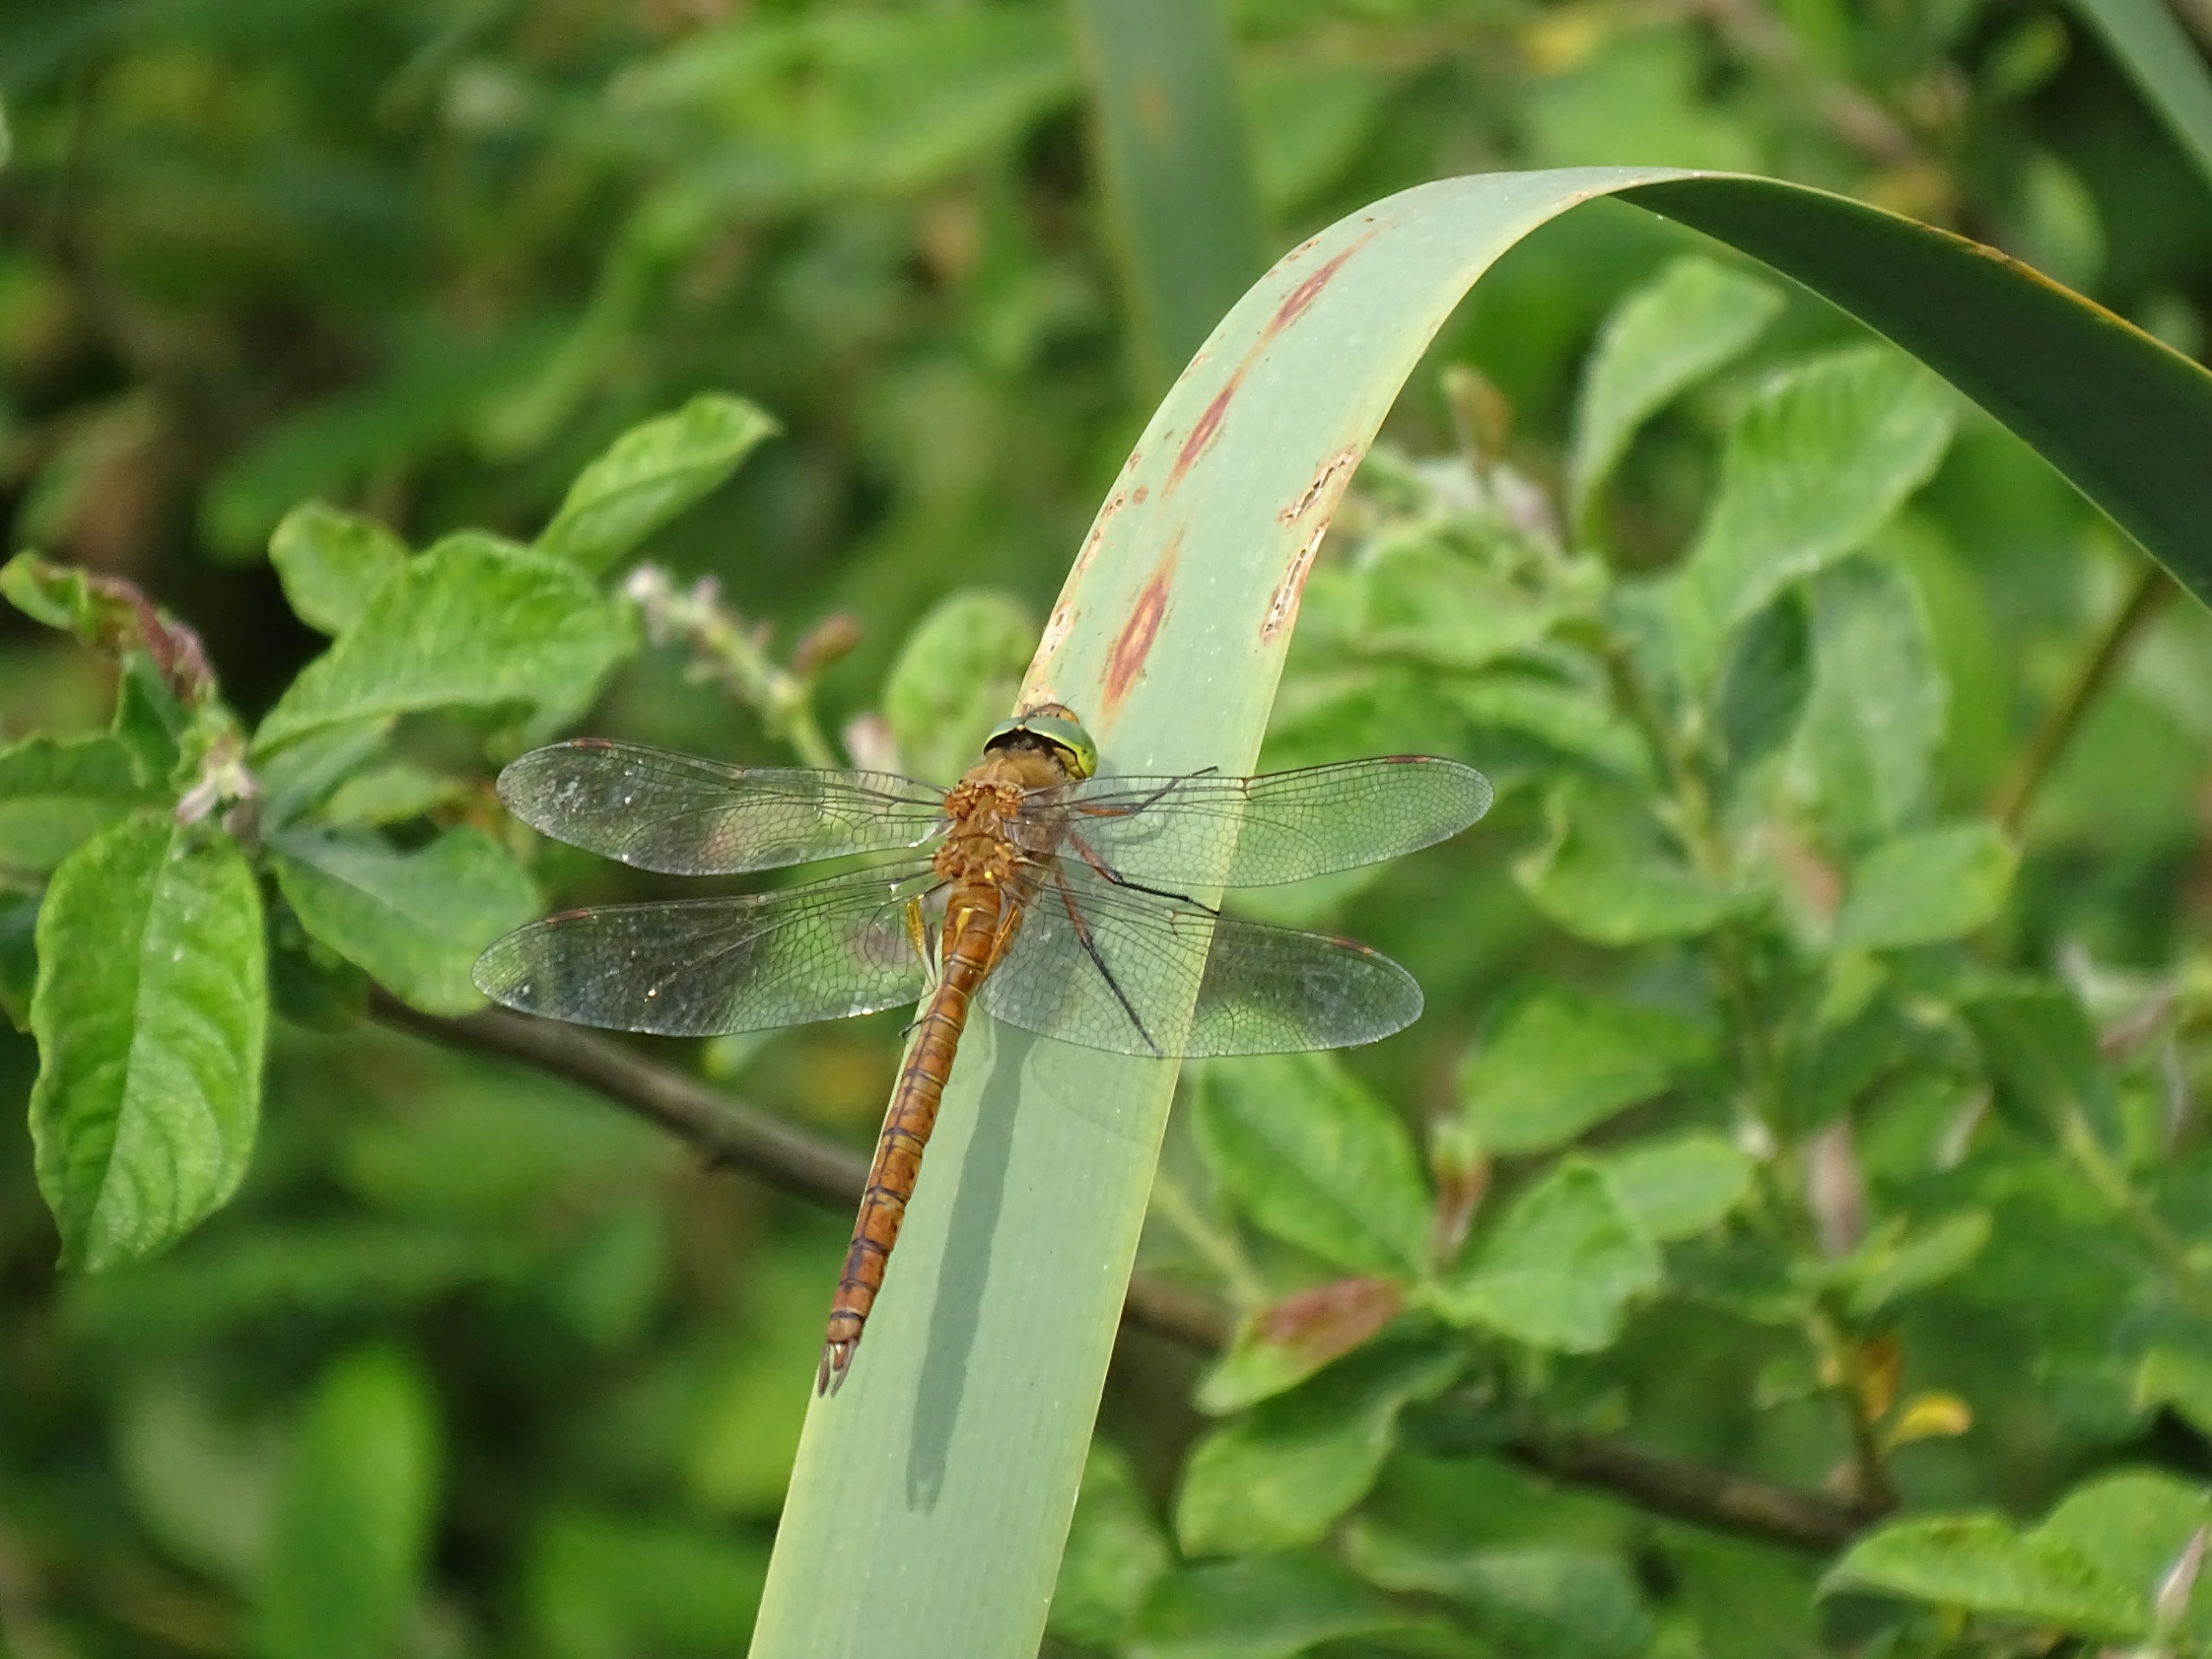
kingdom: Animalia
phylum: Arthropoda
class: Insecta
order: Odonata
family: Aeshnidae
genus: Aeshna
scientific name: Aeshna isoceles
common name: Kileplet-mosaikguldsmed
